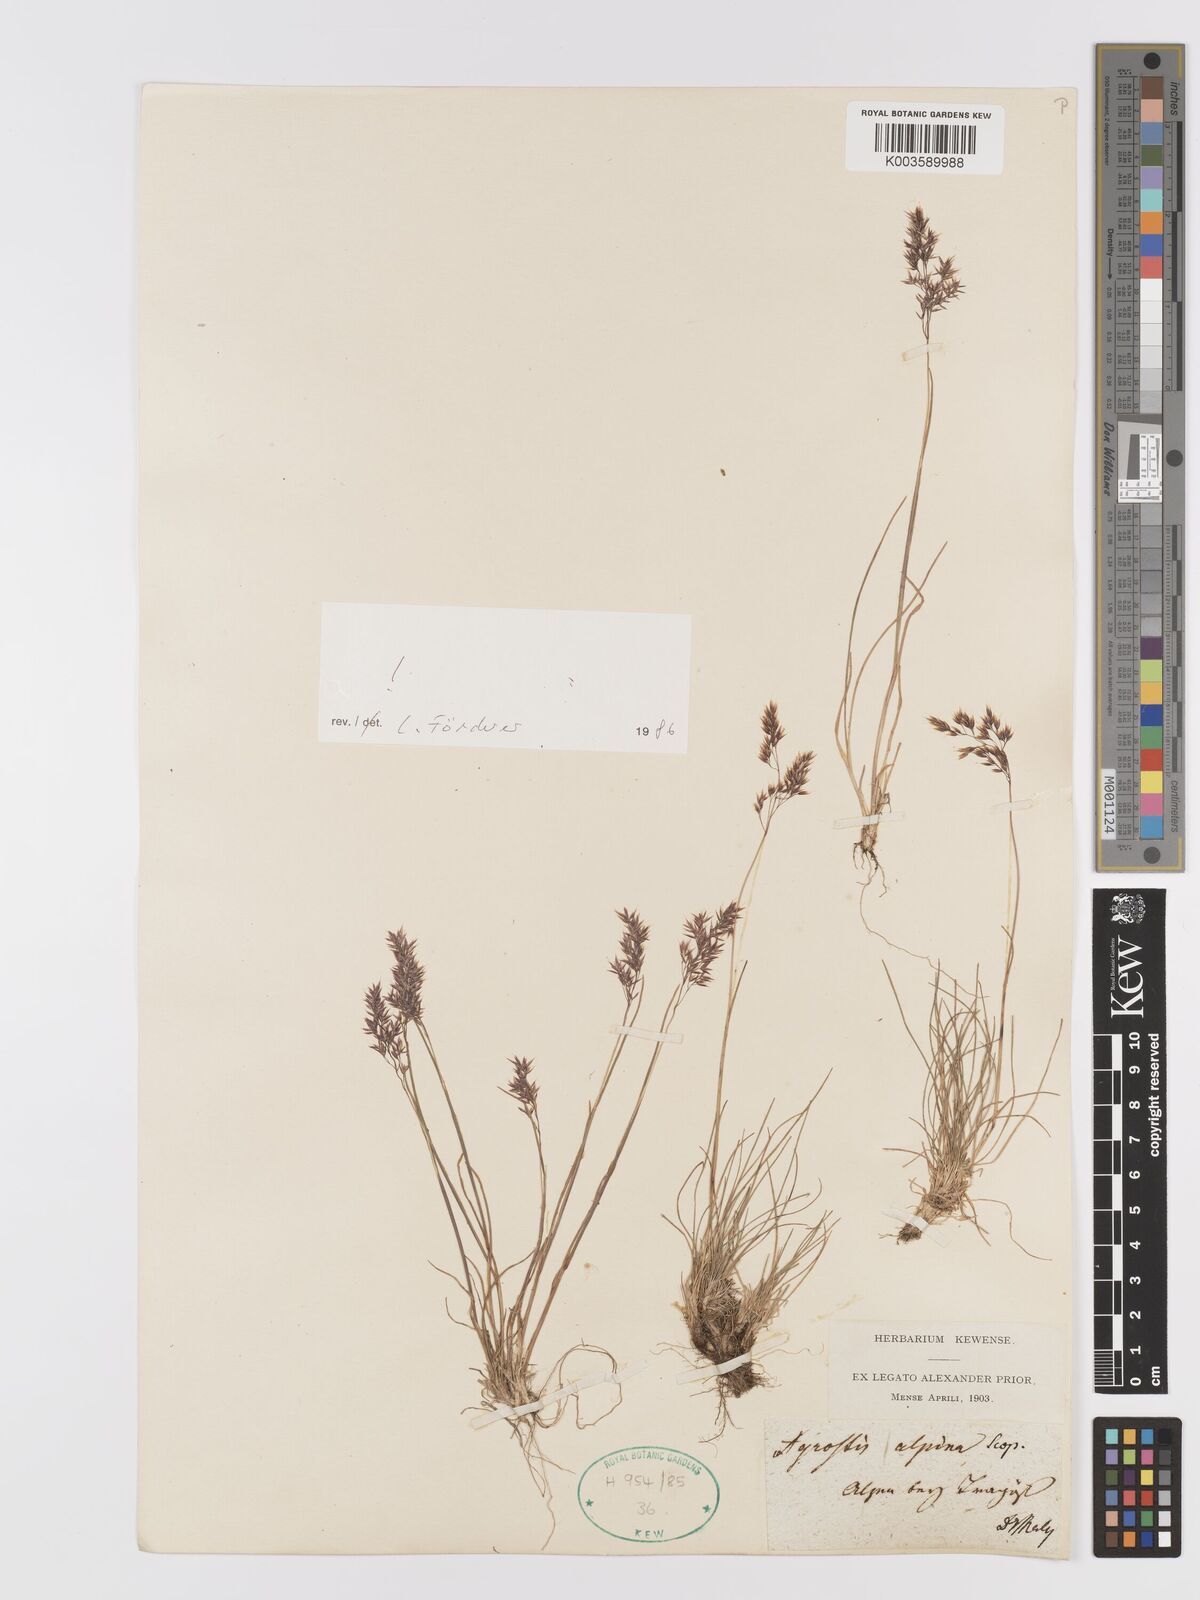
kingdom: Plantae
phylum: Tracheophyta
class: Liliopsida
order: Poales
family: Poaceae
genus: Alpagrostis
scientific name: Alpagrostis alpina
